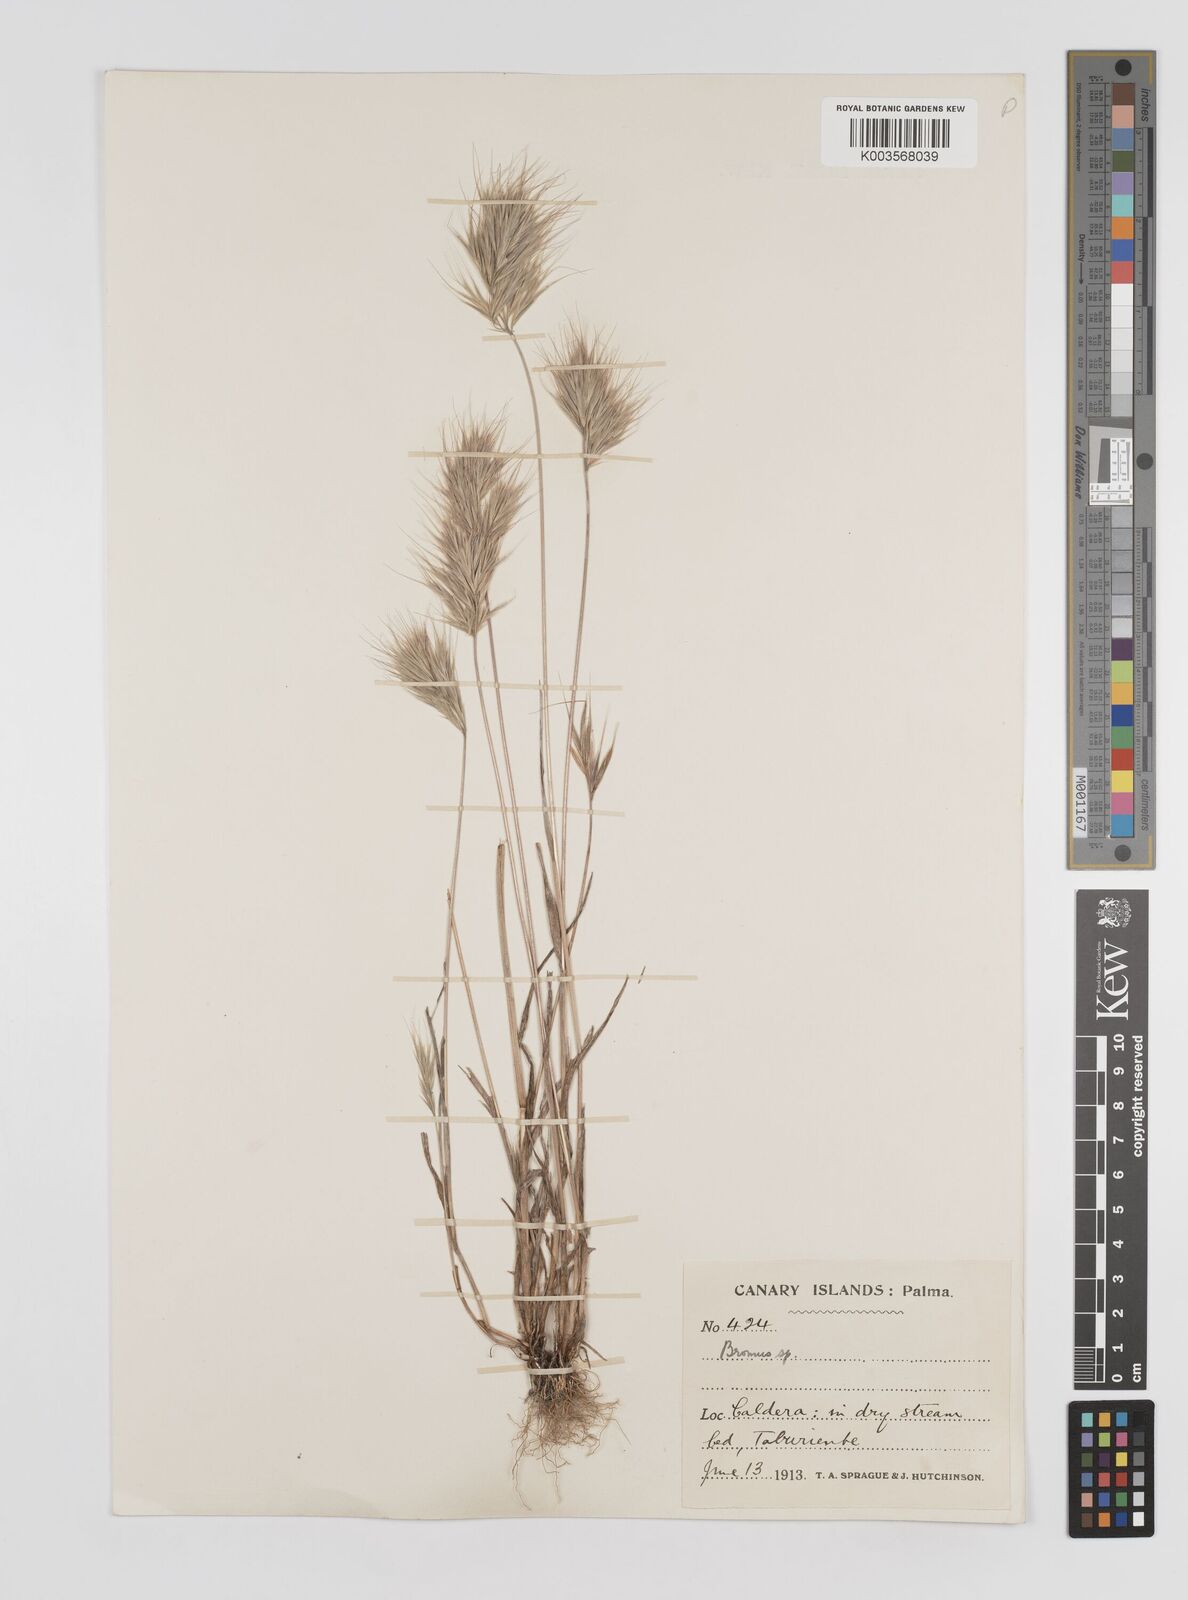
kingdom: Plantae
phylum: Tracheophyta
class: Liliopsida
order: Poales
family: Poaceae
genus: Bromus
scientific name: Bromus
